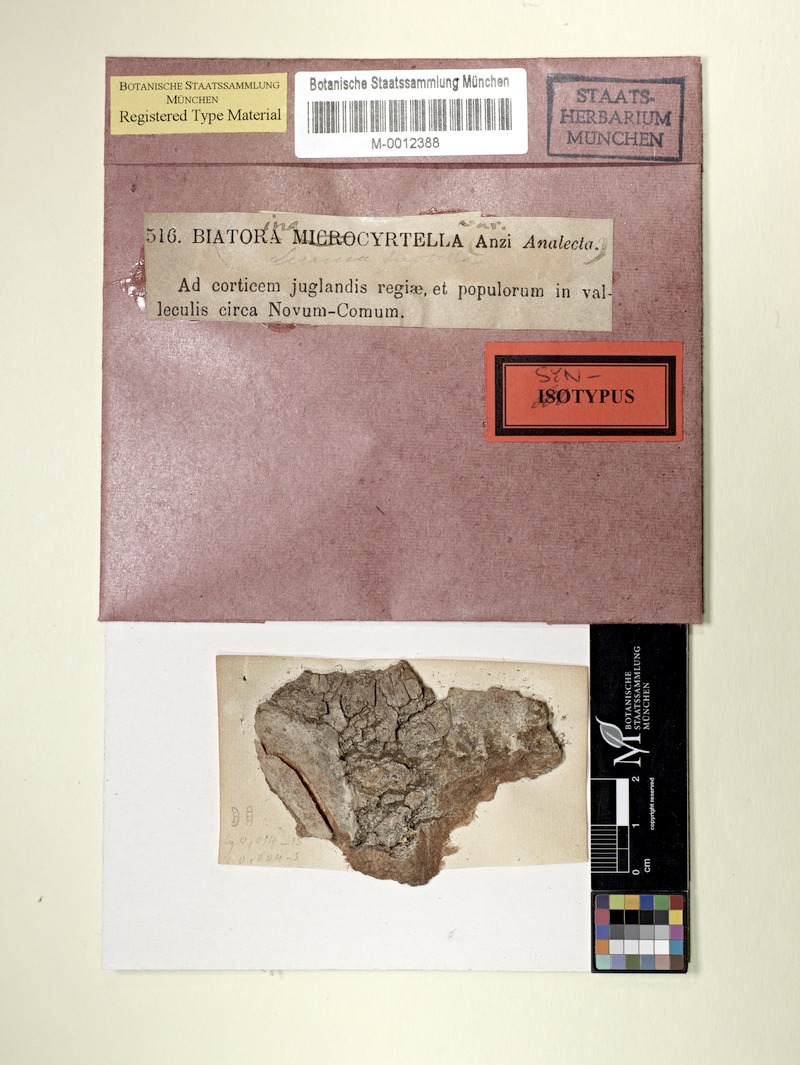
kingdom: Fungi
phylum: Ascomycota
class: Lecanoromycetes
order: Lecanorales
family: Ramalinaceae
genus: Lecania
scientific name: Lecania cyrtella
